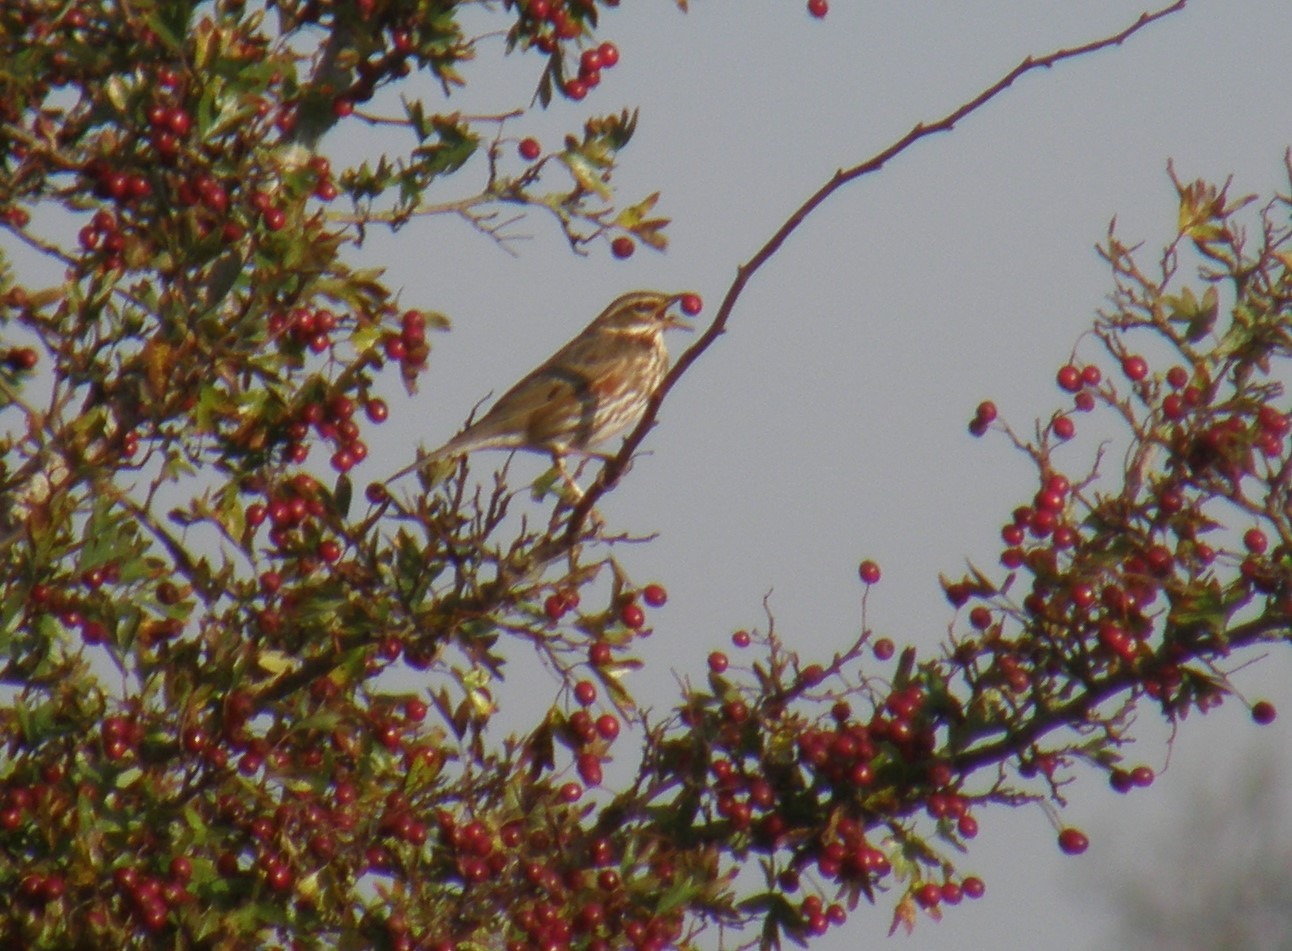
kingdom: Animalia
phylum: Chordata
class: Aves
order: Passeriformes
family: Turdidae
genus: Turdus
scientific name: Turdus iliacus
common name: Vindrossel
